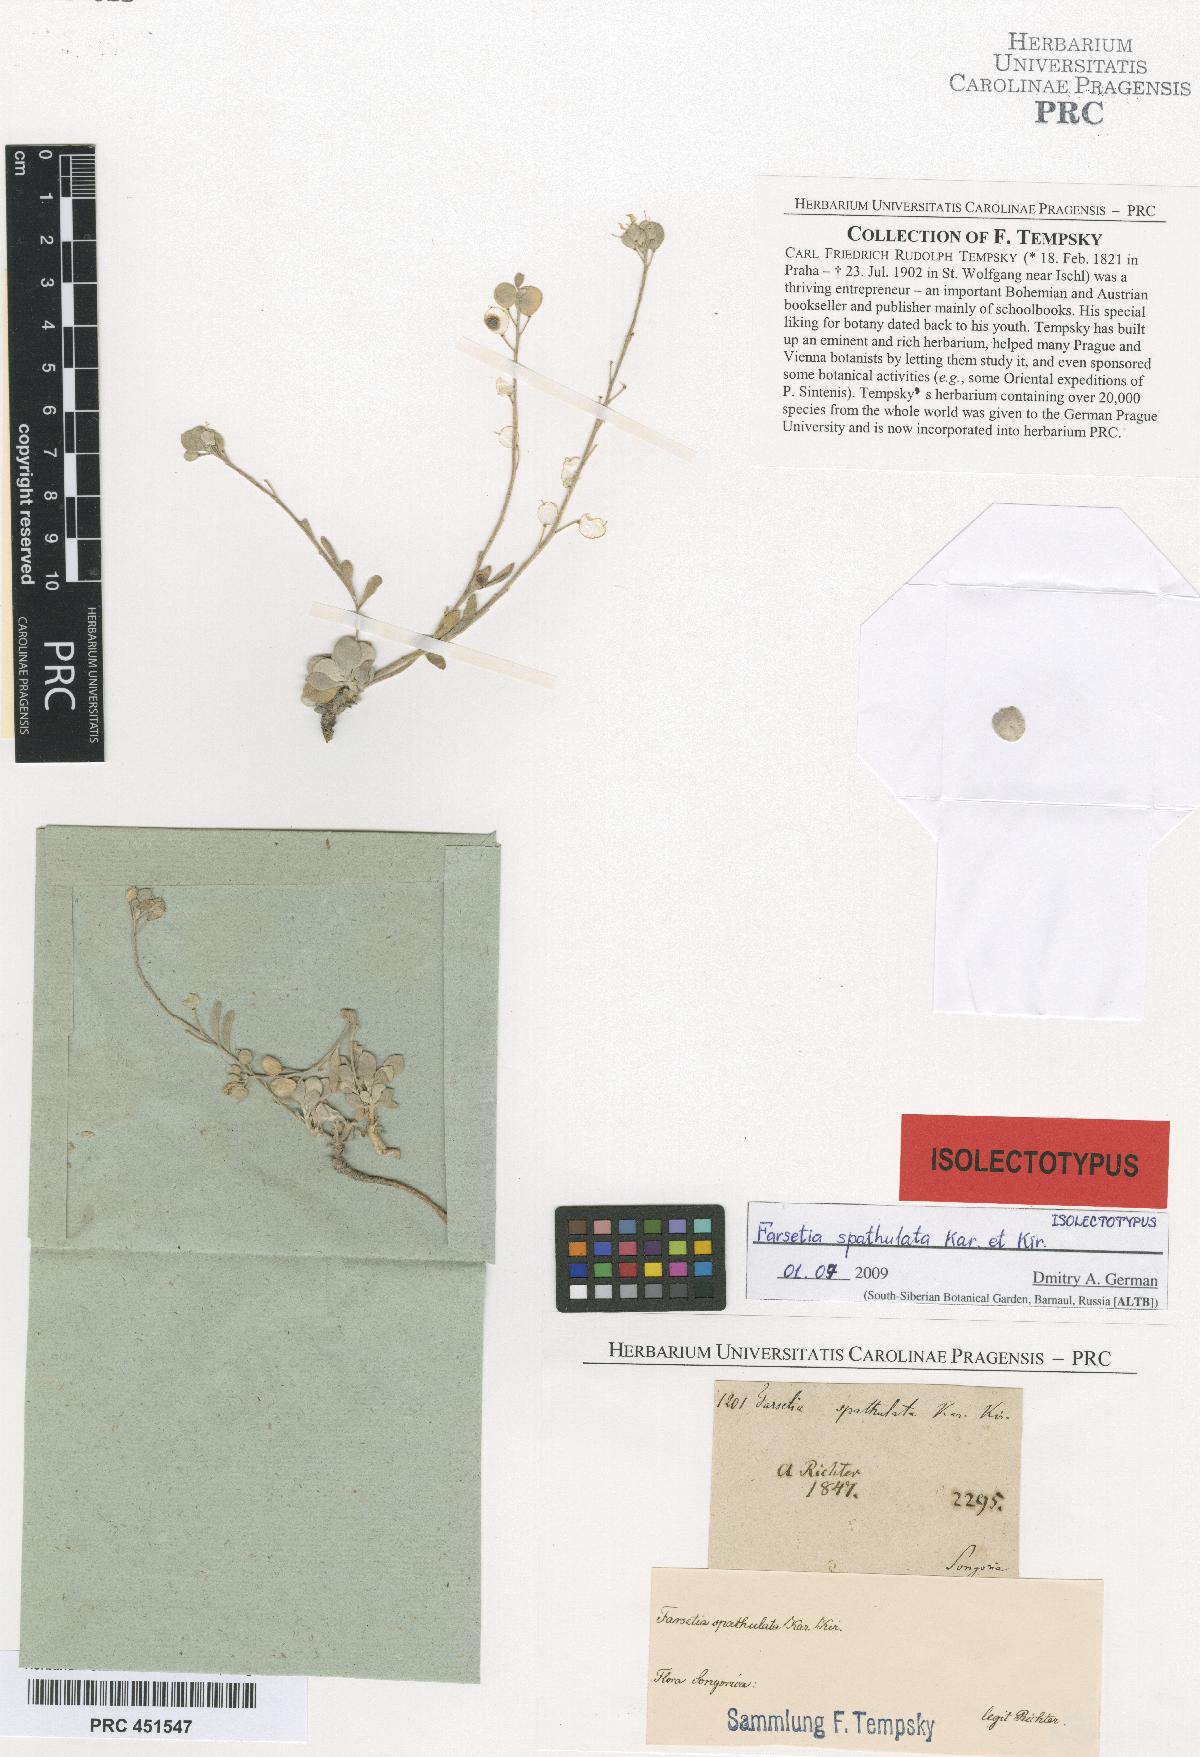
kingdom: Plantae
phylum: Tracheophyta
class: Magnoliopsida
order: Brassicales
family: Brassicaceae
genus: Pterygostemon
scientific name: Pterygostemon spathulatus
